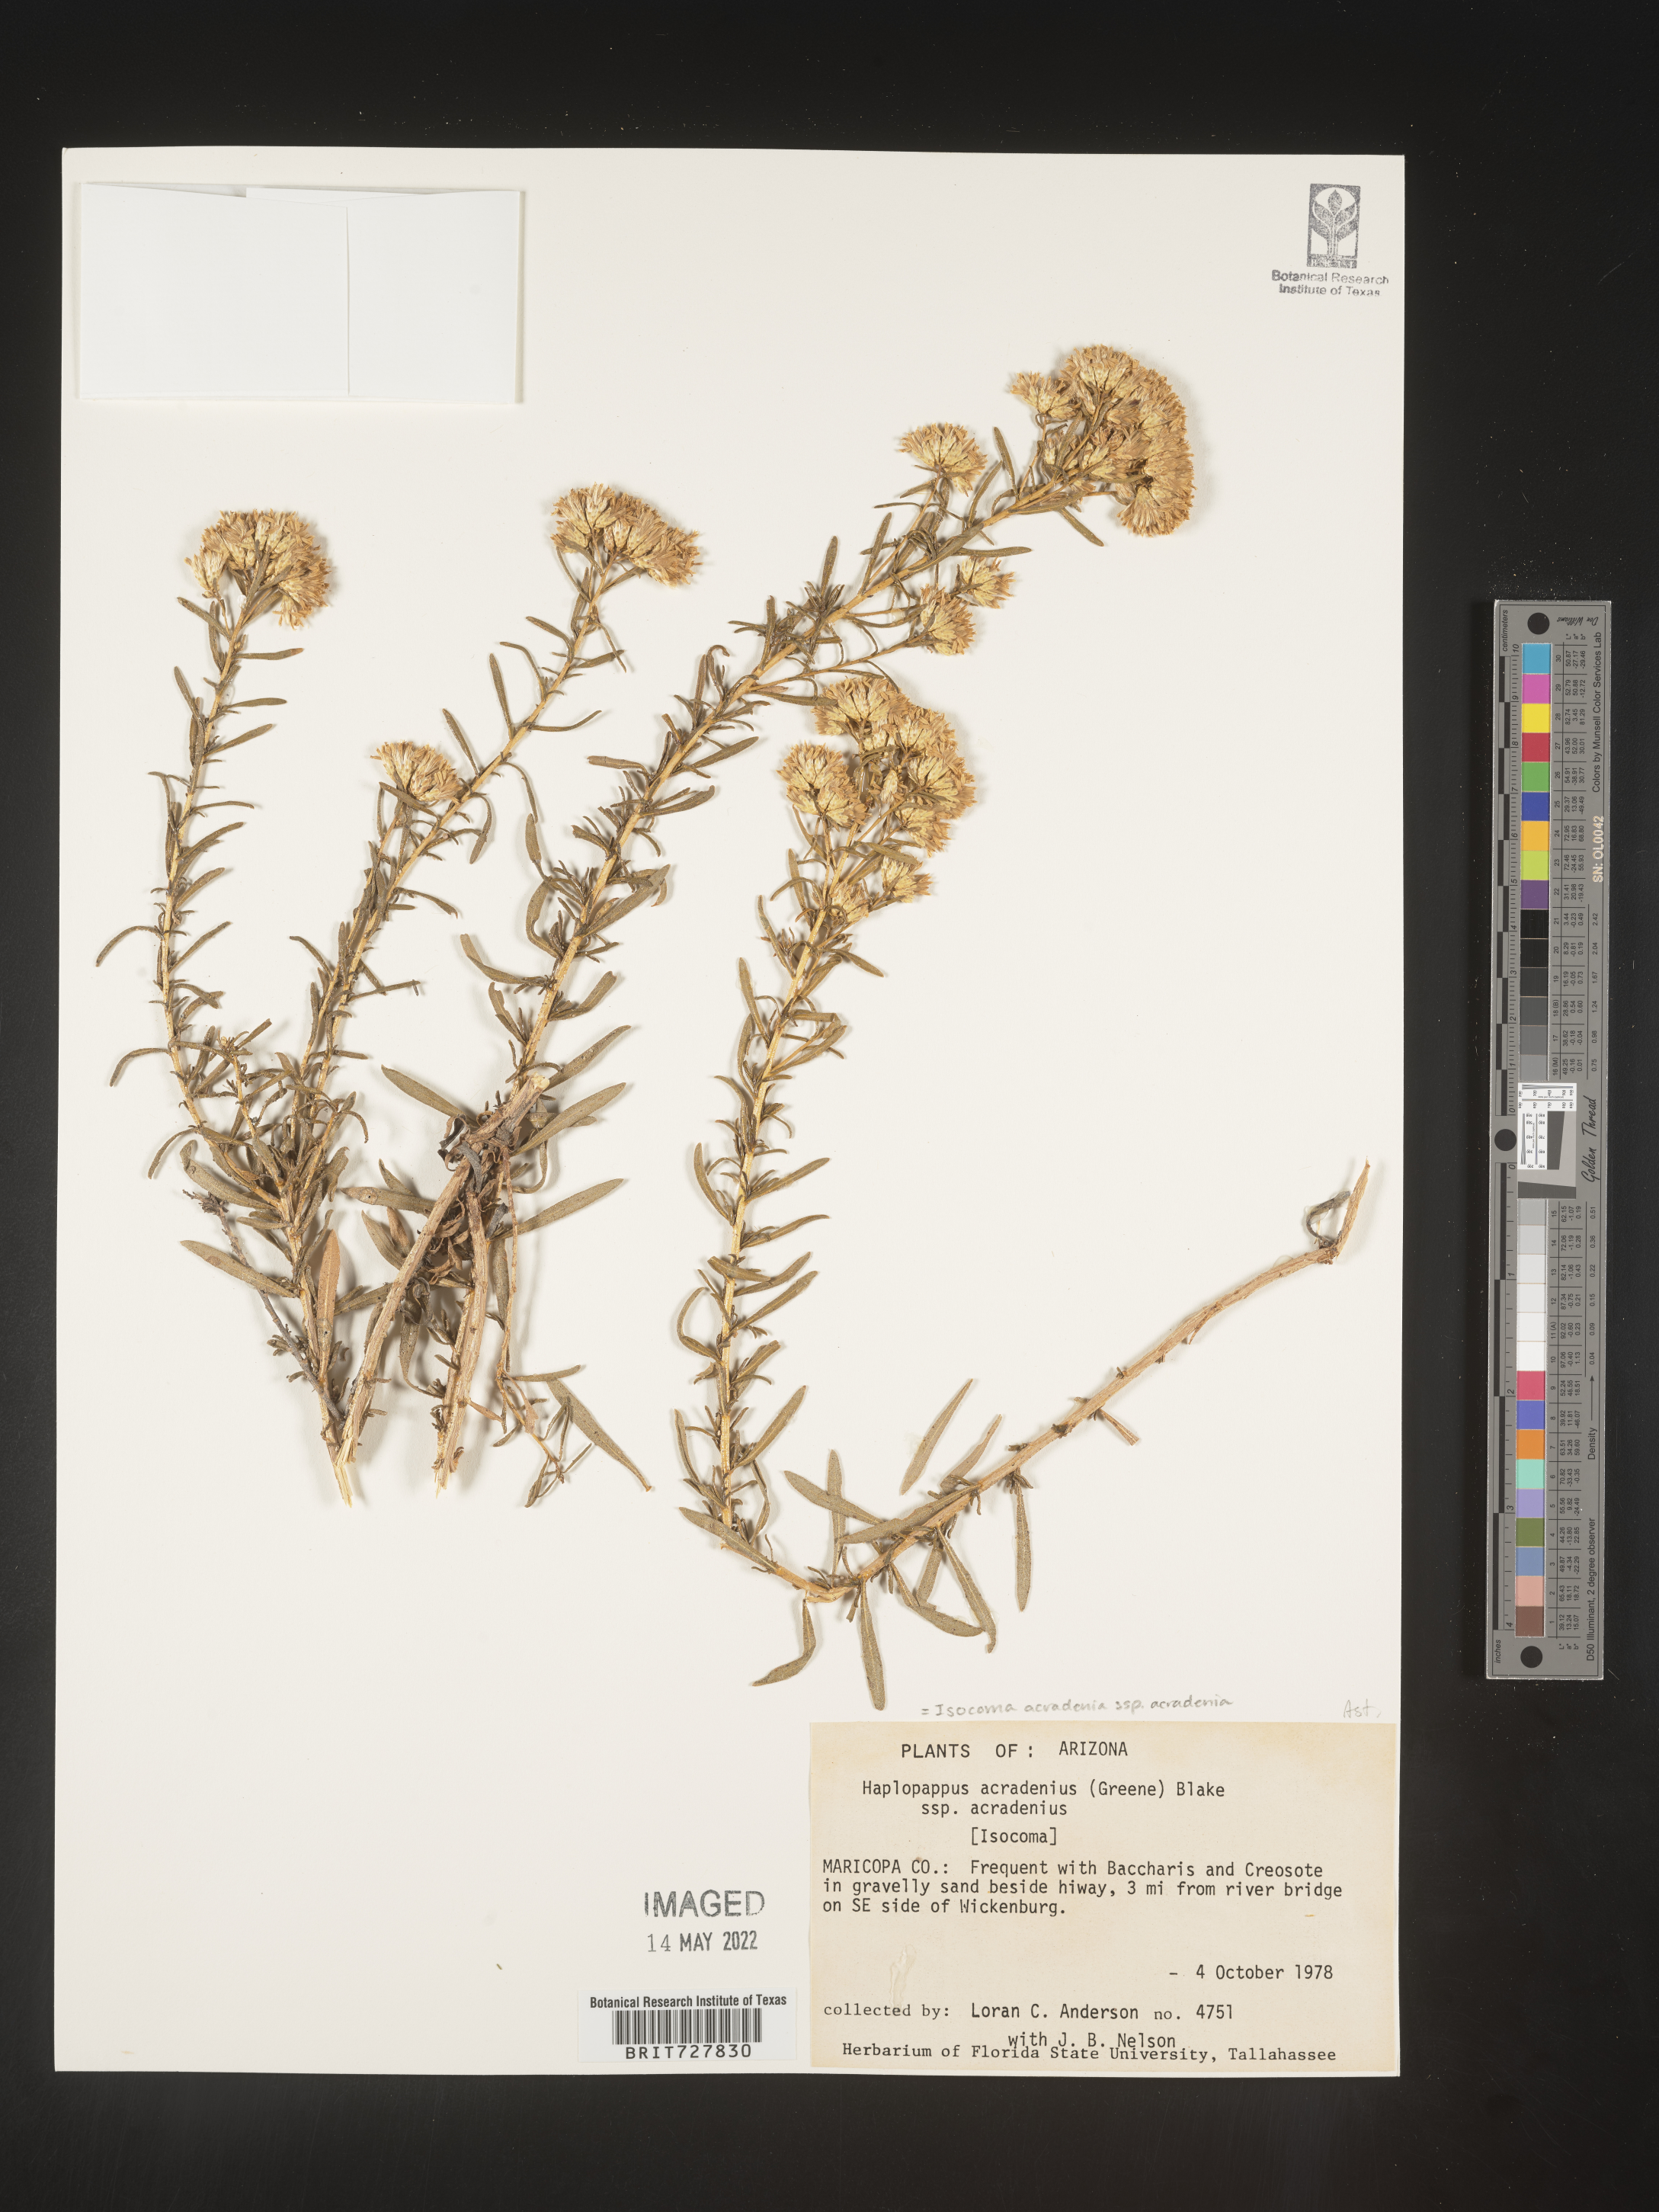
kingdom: Plantae
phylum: Tracheophyta
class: Magnoliopsida
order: Asterales
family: Asteraceae
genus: Isocoma
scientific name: Isocoma acradenia
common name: Alkali jimmyweed
